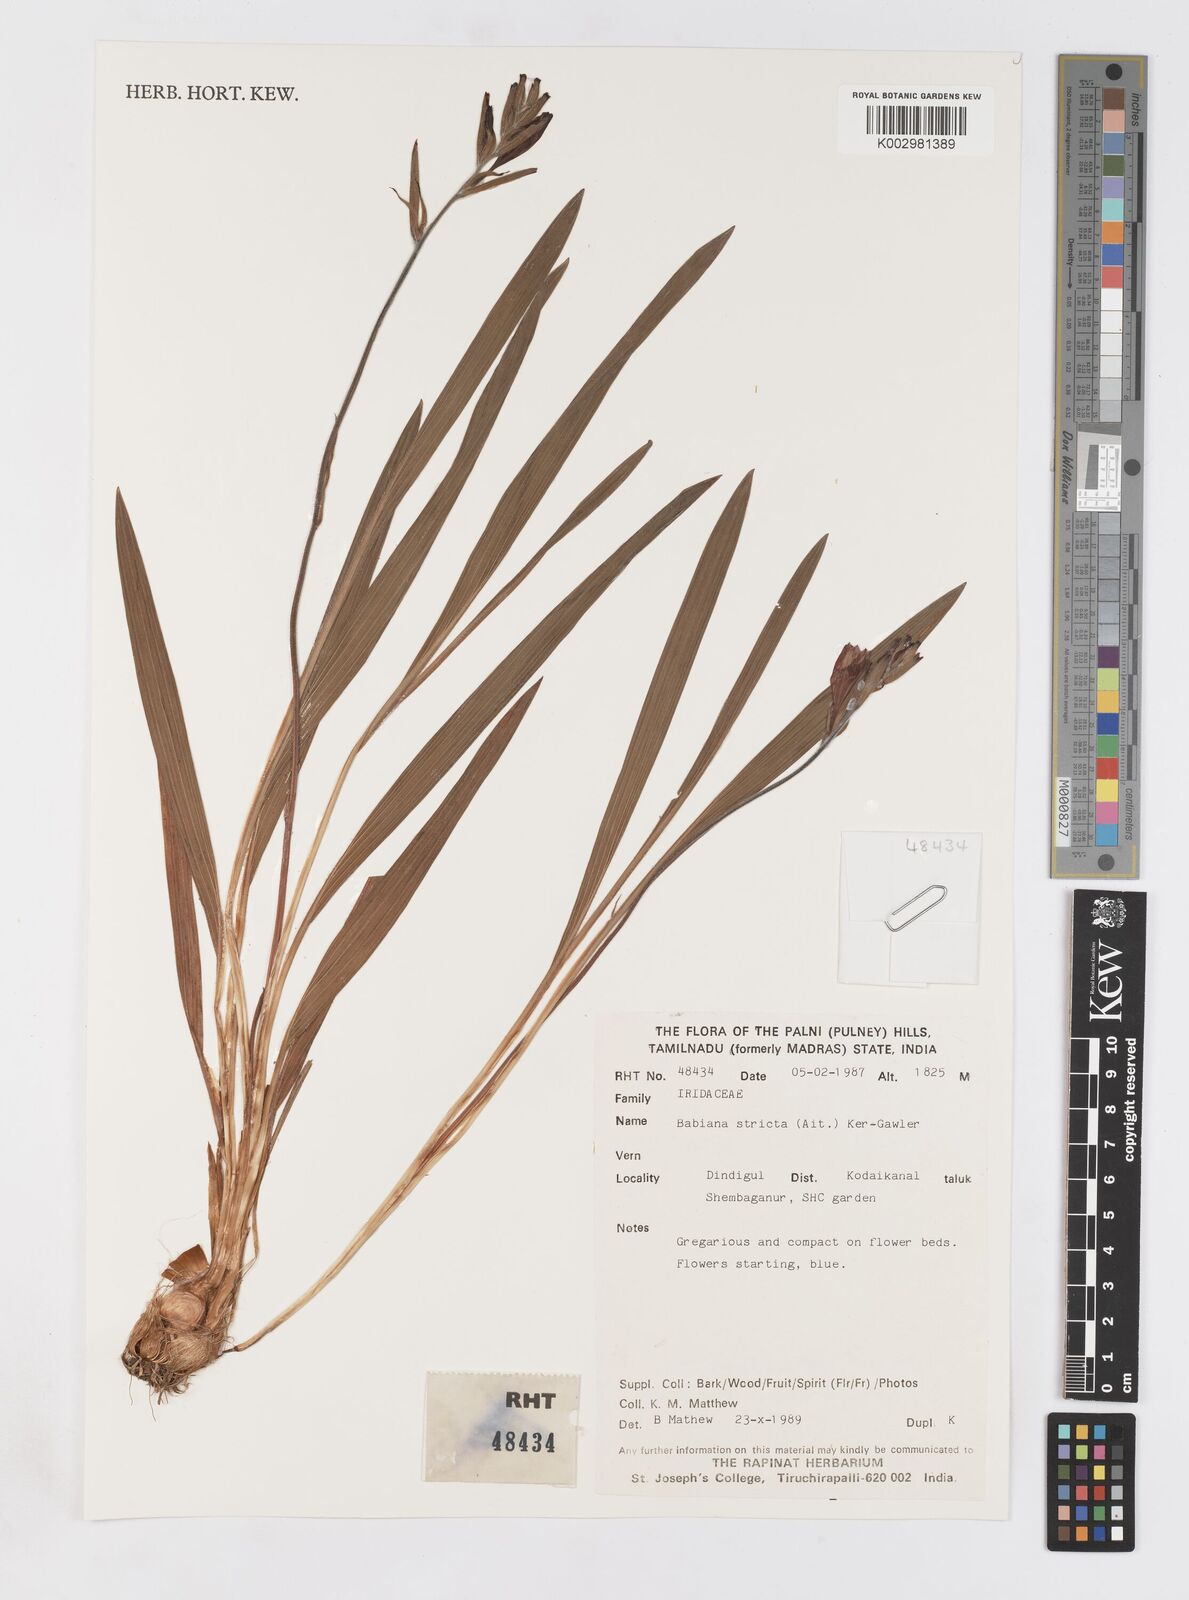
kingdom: Plantae
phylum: Tracheophyta
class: Liliopsida
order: Asparagales
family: Iridaceae
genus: Babiana
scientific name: Babiana nervosa
